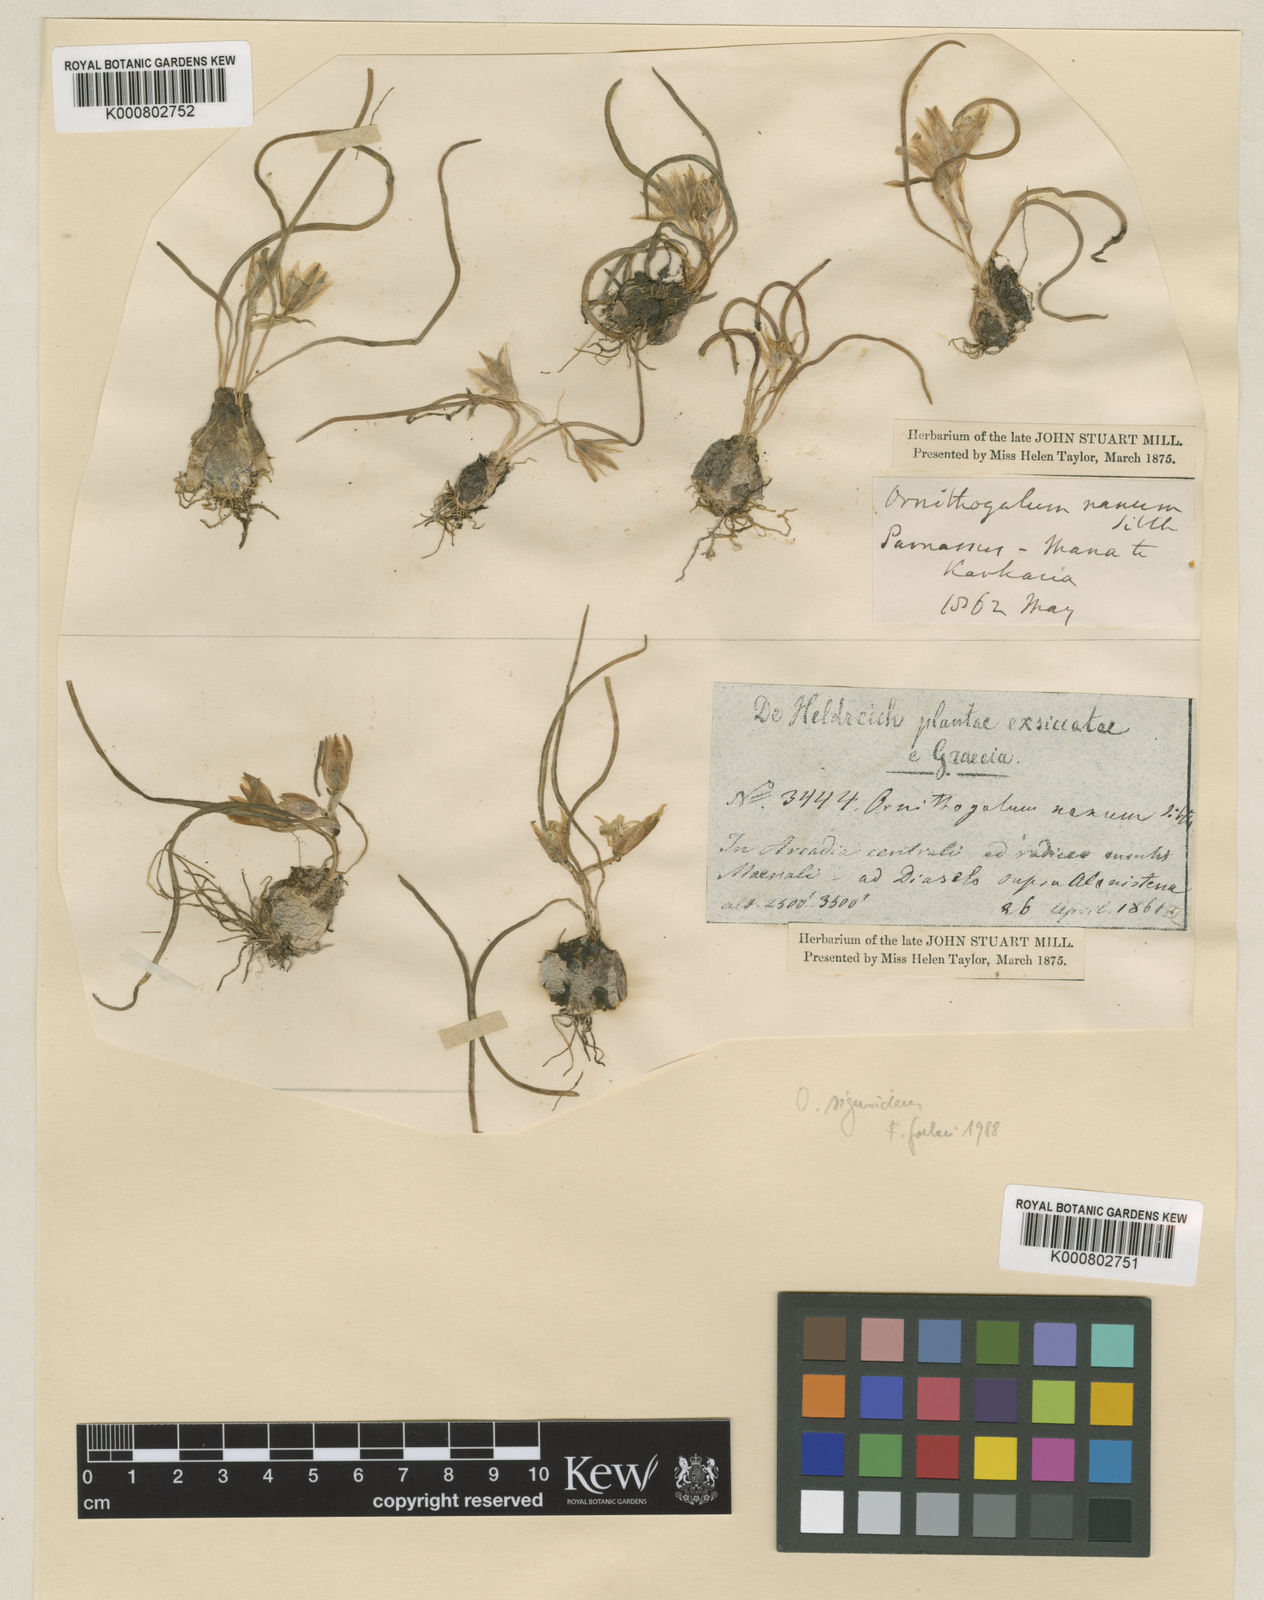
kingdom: Plantae
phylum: Tracheophyta
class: Liliopsida
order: Asparagales
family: Asparagaceae
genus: Ornithogalum
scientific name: Ornithogalum sigmoideum
